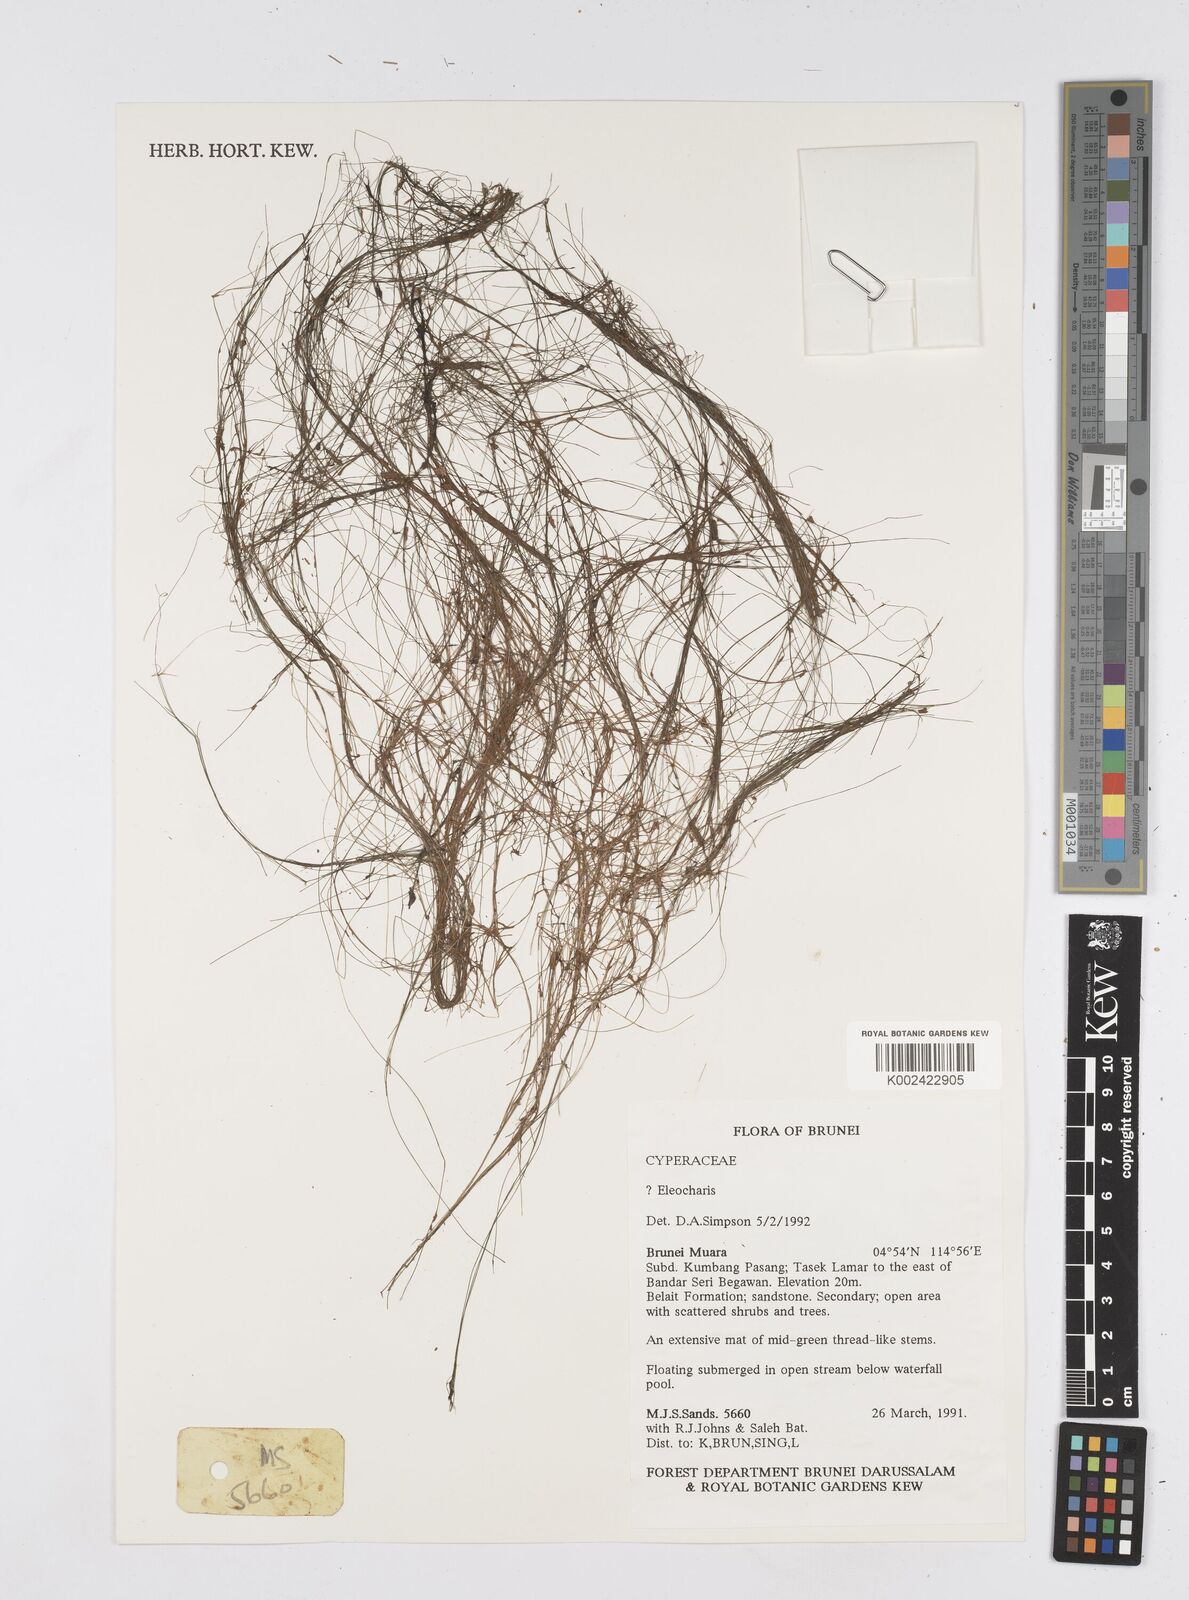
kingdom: Plantae
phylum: Tracheophyta
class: Liliopsida
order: Poales
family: Cyperaceae
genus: Eleocharis
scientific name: Eleocharis
